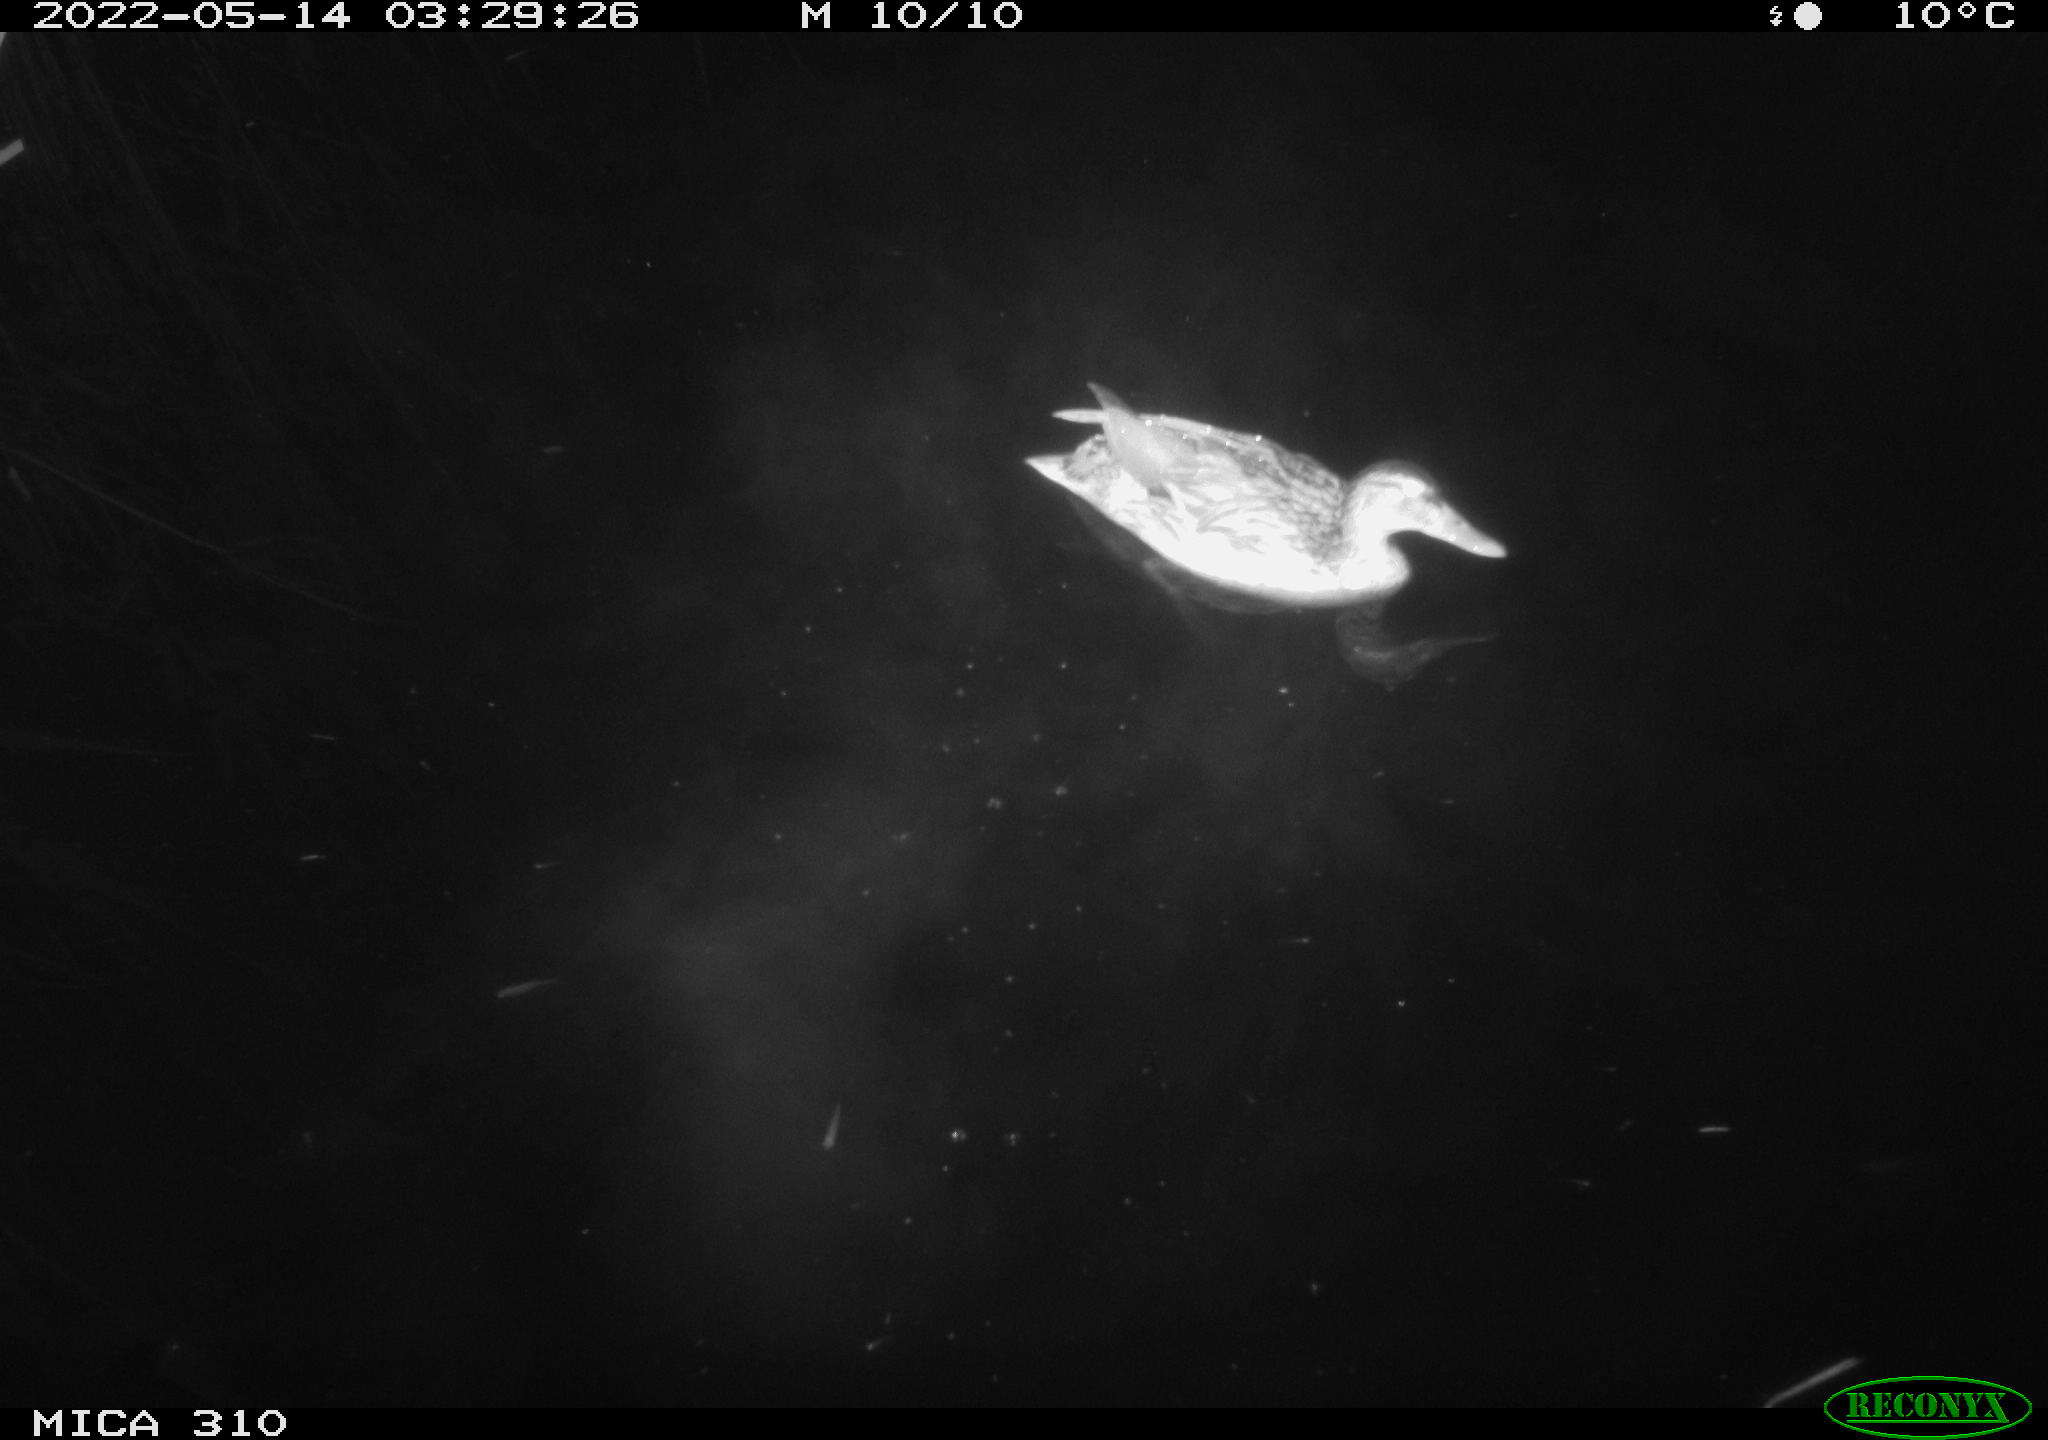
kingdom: Animalia
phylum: Chordata
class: Aves
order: Anseriformes
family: Anatidae
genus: Mareca
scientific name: Mareca strepera
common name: Gadwall
